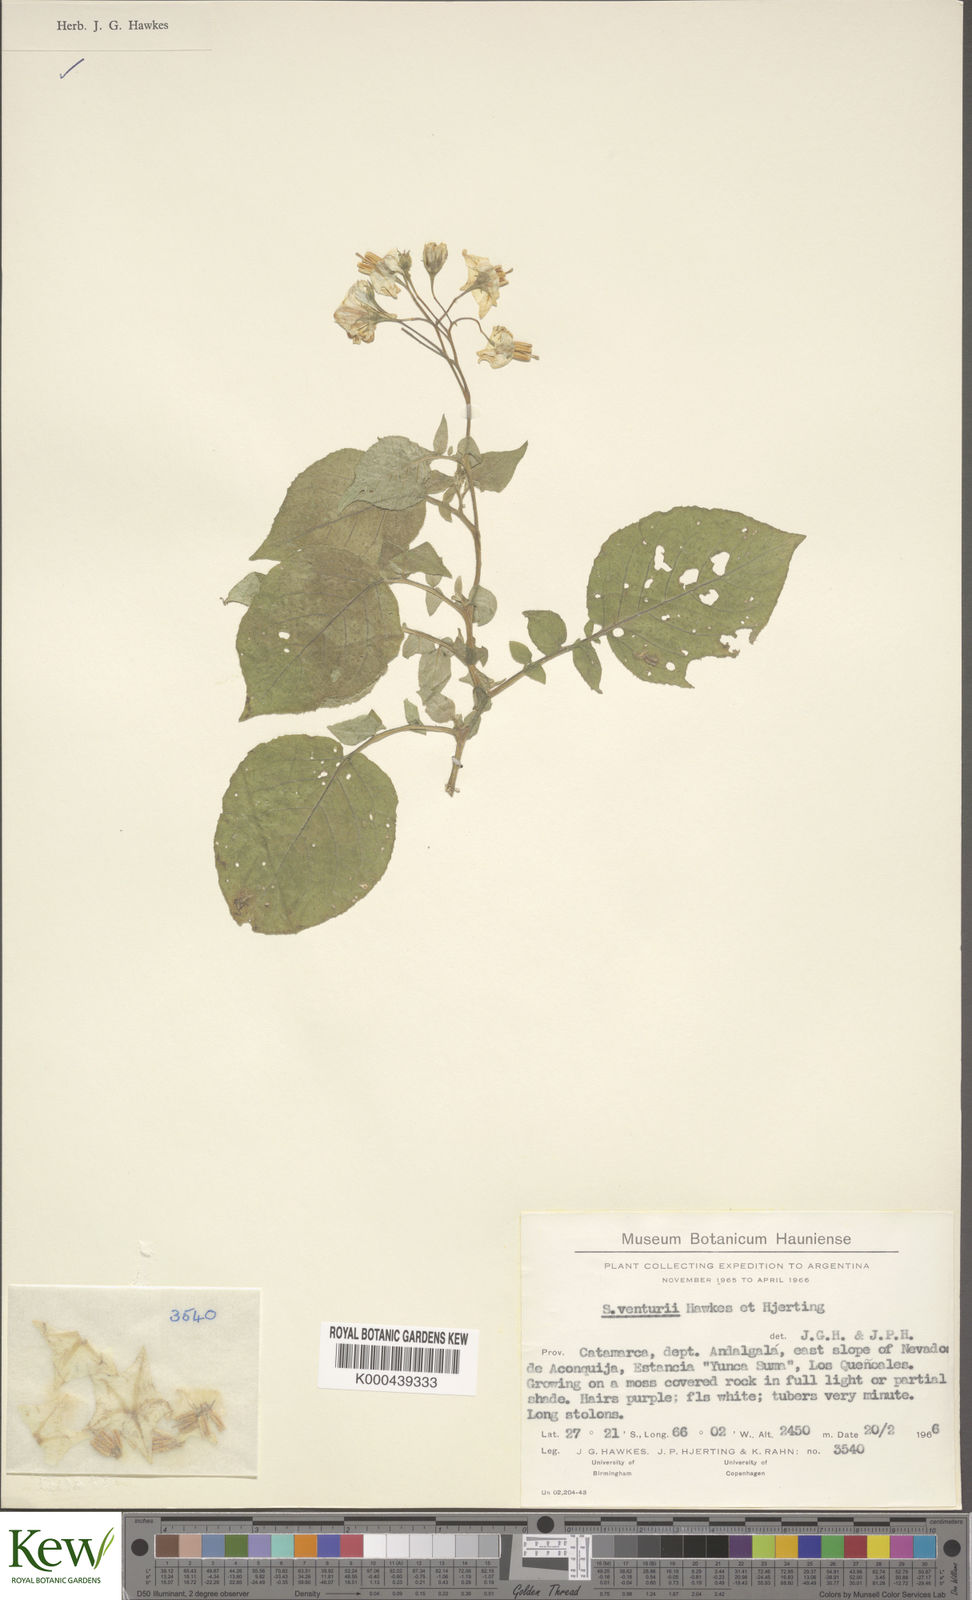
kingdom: Plantae
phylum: Tracheophyta
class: Magnoliopsida
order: Solanales
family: Solanaceae
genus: Solanum
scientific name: Solanum venturii
